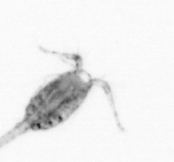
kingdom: Animalia
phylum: Arthropoda
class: Copepoda
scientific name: Copepoda
